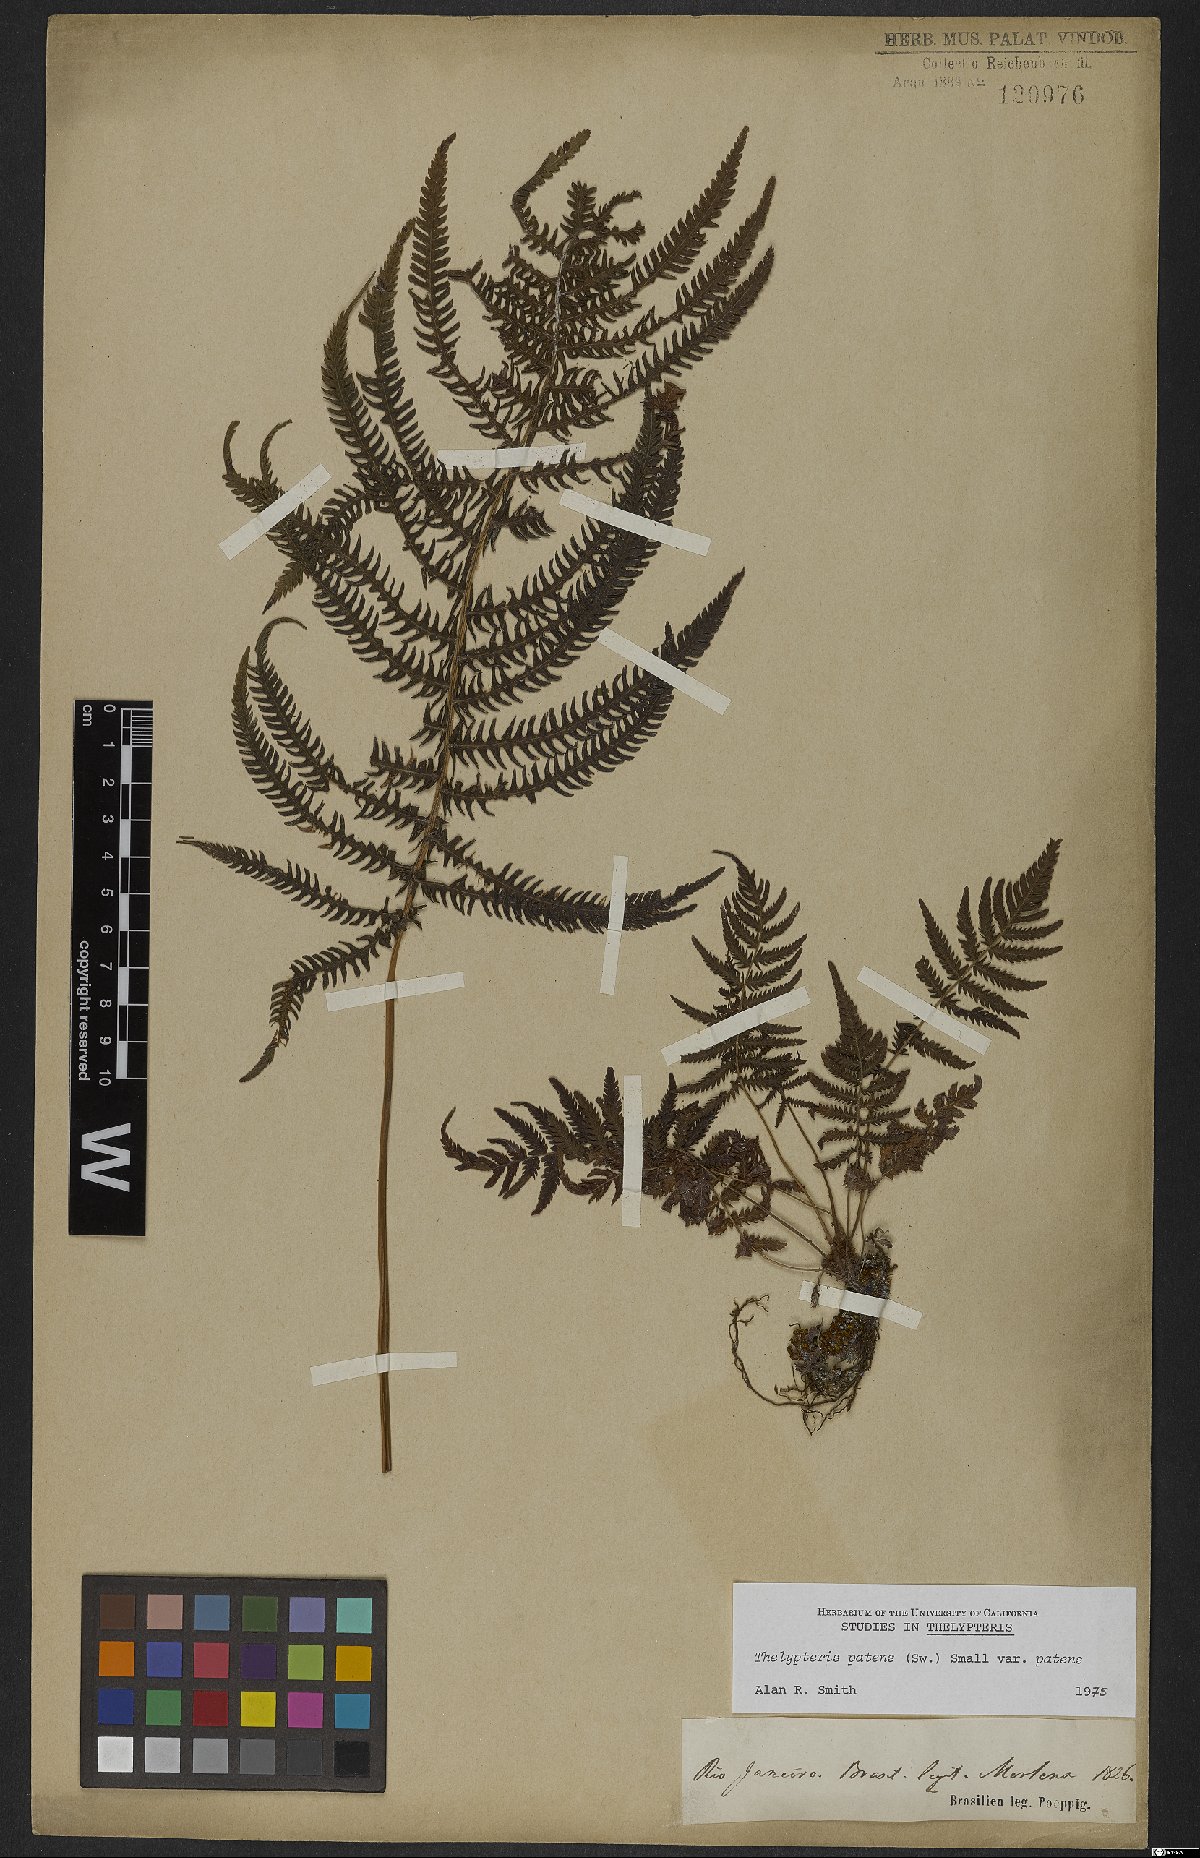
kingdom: Plantae
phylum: Tracheophyta
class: Polypodiopsida
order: Polypodiales
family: Thelypteridaceae
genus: Pelazoneuron
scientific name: Pelazoneuron patens
